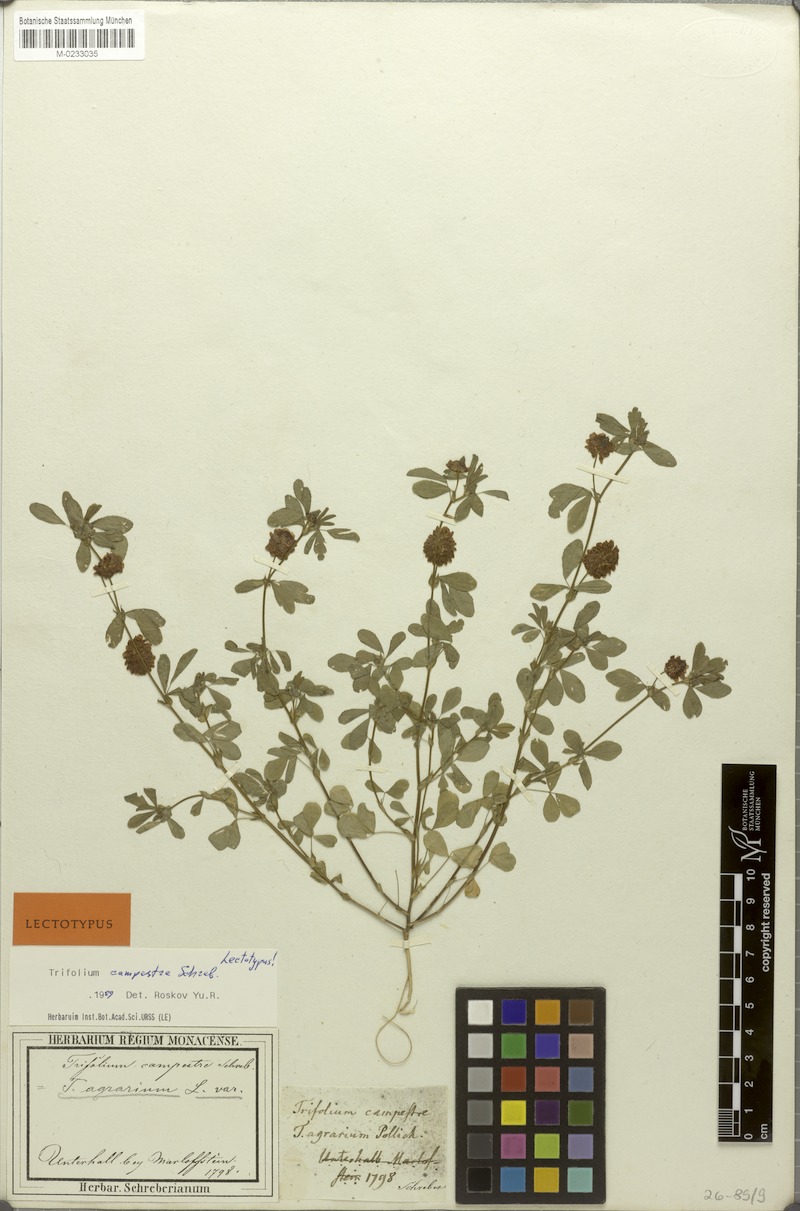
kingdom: Plantae
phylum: Tracheophyta
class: Magnoliopsida
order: Fabales
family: Fabaceae
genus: Trifolium
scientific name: Trifolium campestre
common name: Field clover
